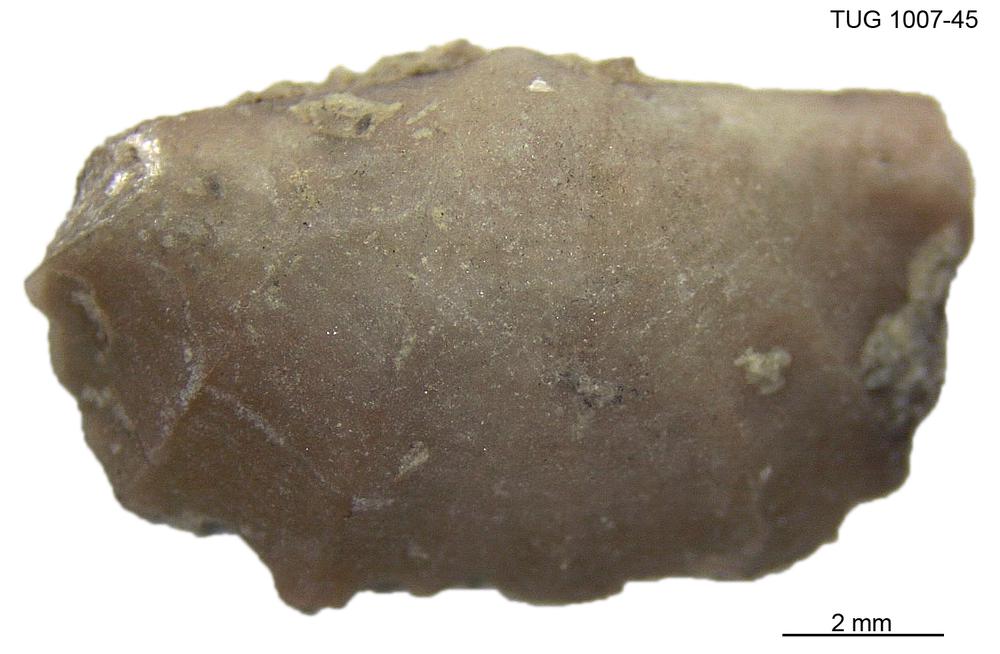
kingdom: Animalia
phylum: Brachiopoda
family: Oldhaminidae
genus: Eoplectodonta
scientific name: Eoplectodonta
